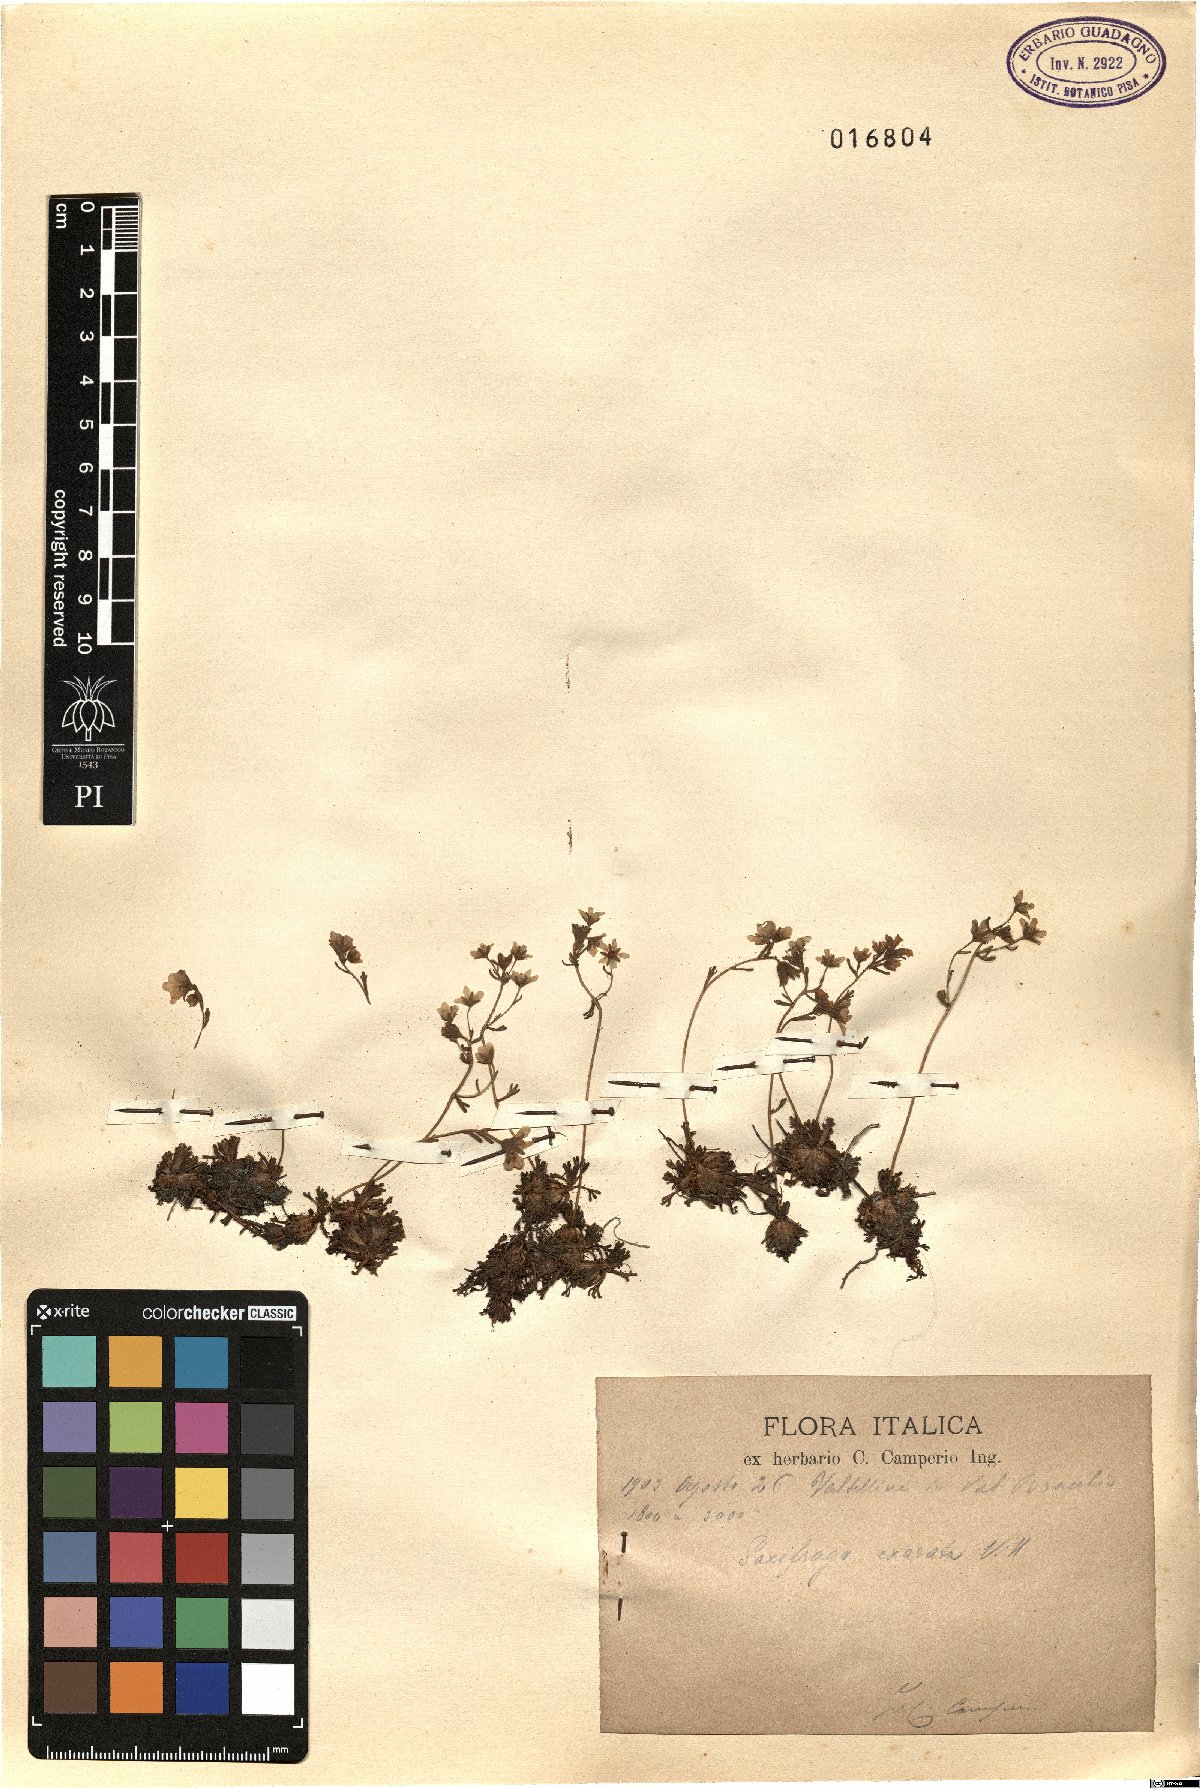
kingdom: Plantae
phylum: Tracheophyta
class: Magnoliopsida
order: Saxifragales
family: Saxifragaceae
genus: Saxifraga
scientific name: Saxifraga exarata
